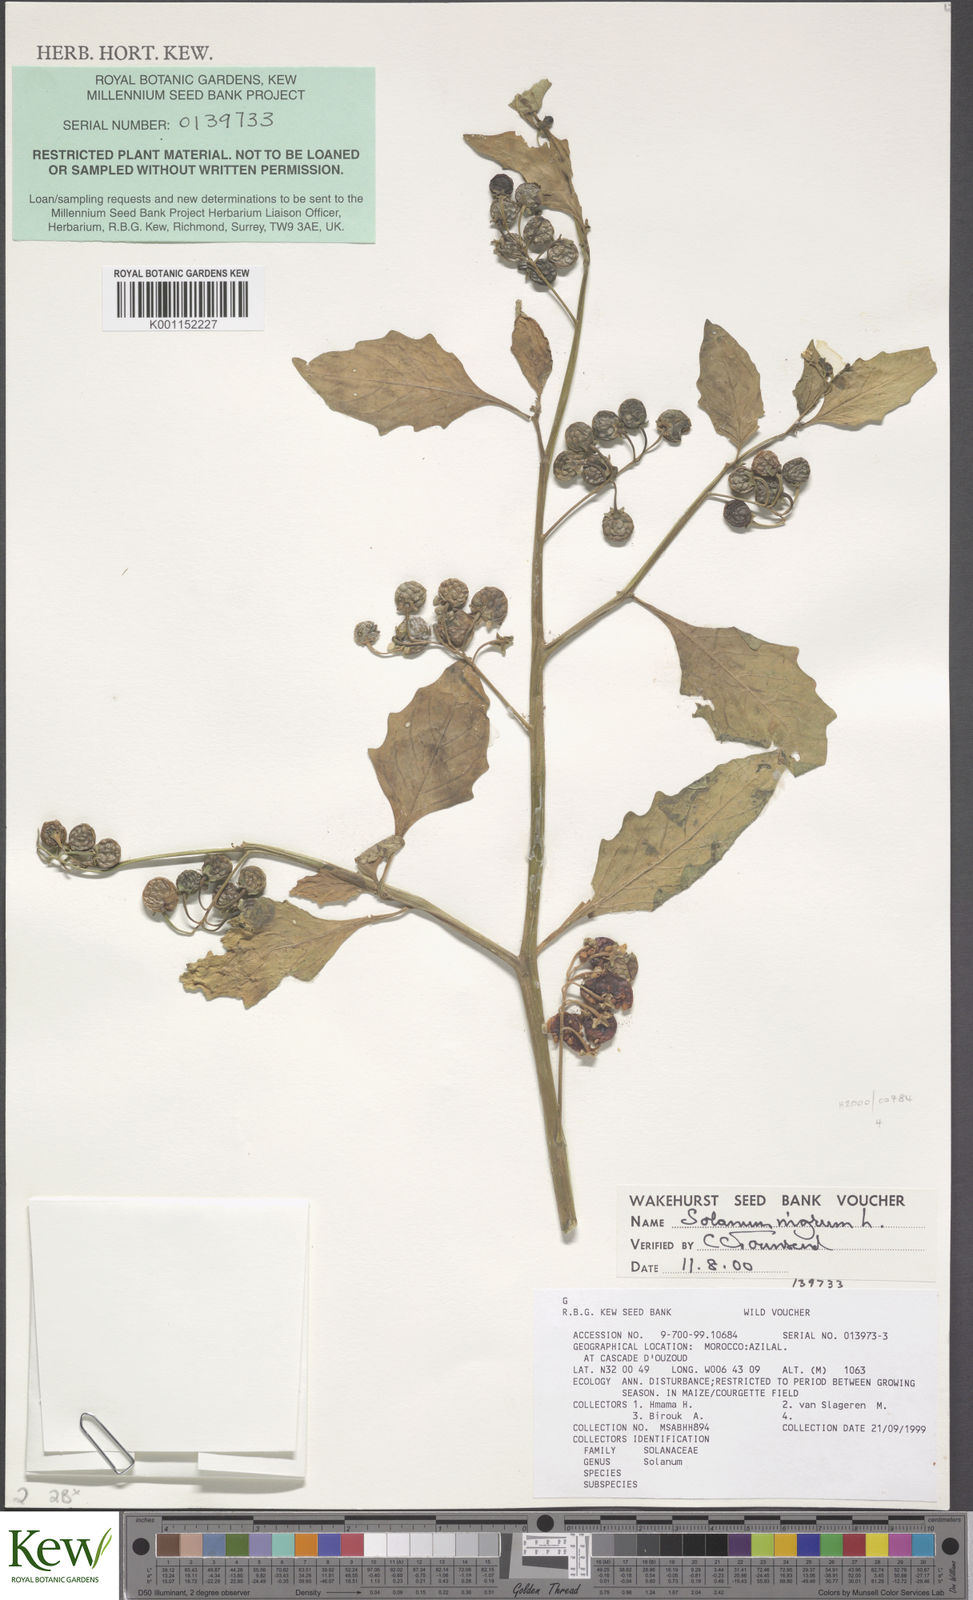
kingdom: Plantae
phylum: Tracheophyta
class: Magnoliopsida
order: Solanales
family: Solanaceae
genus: Solanum
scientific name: Solanum nigrum
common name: Black nightshade
